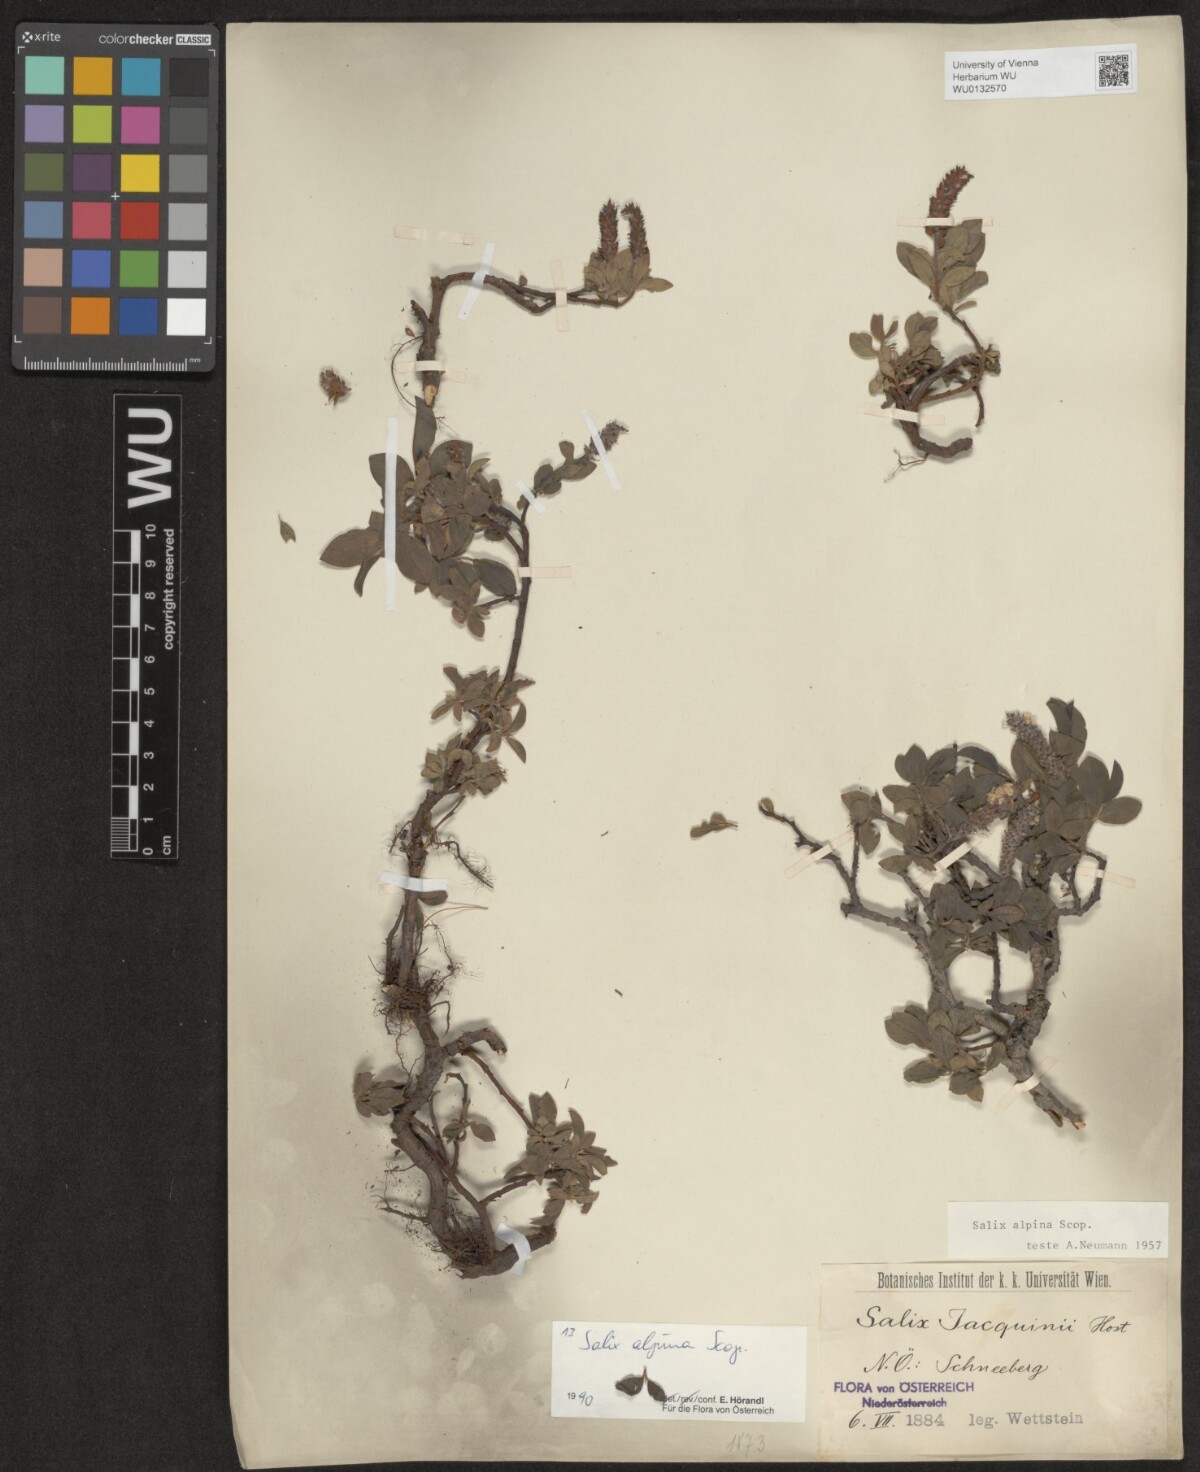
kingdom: Plantae
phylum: Tracheophyta
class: Magnoliopsida
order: Malpighiales
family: Salicaceae
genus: Salix
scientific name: Salix alpina
